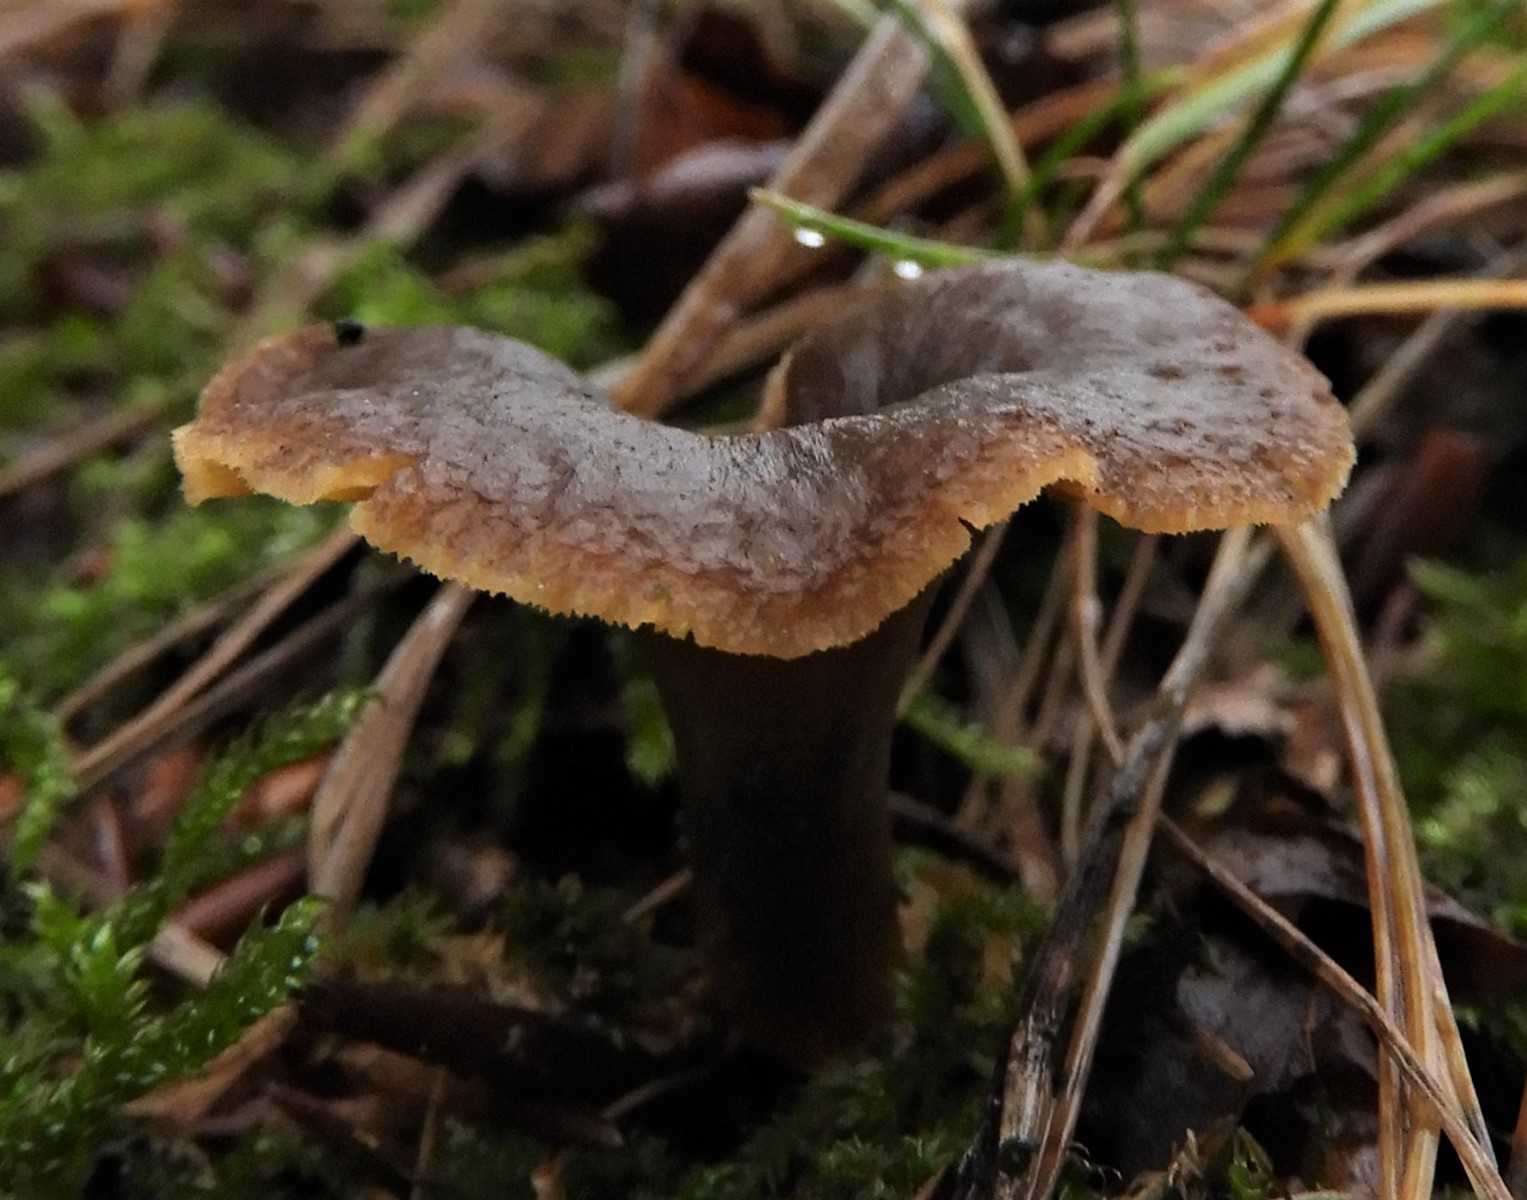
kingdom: Fungi
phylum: Basidiomycota
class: Agaricomycetes
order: Cantharellales
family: Hydnaceae
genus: Craterellus
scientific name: Craterellus tubaeformis
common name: tragt-kantarel
